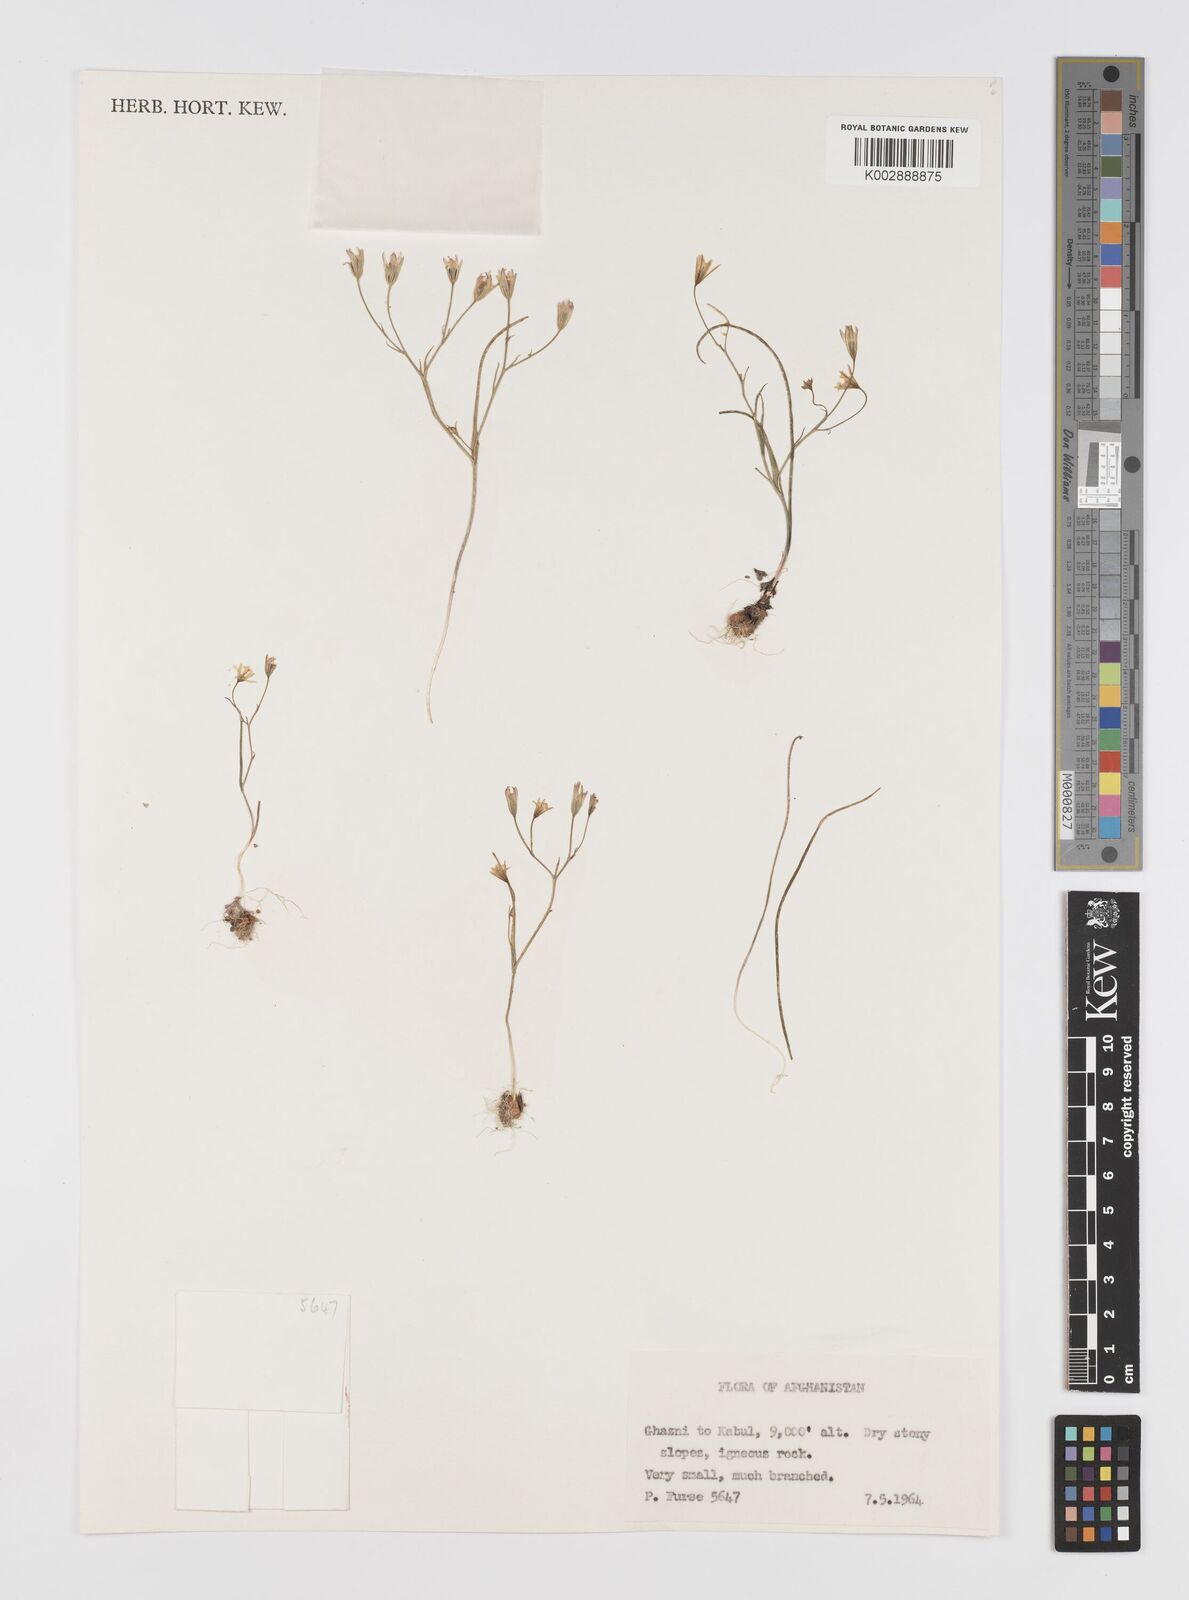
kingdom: Plantae
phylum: Tracheophyta
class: Liliopsida
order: Liliales
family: Liliaceae
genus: Gagea
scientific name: Gagea
